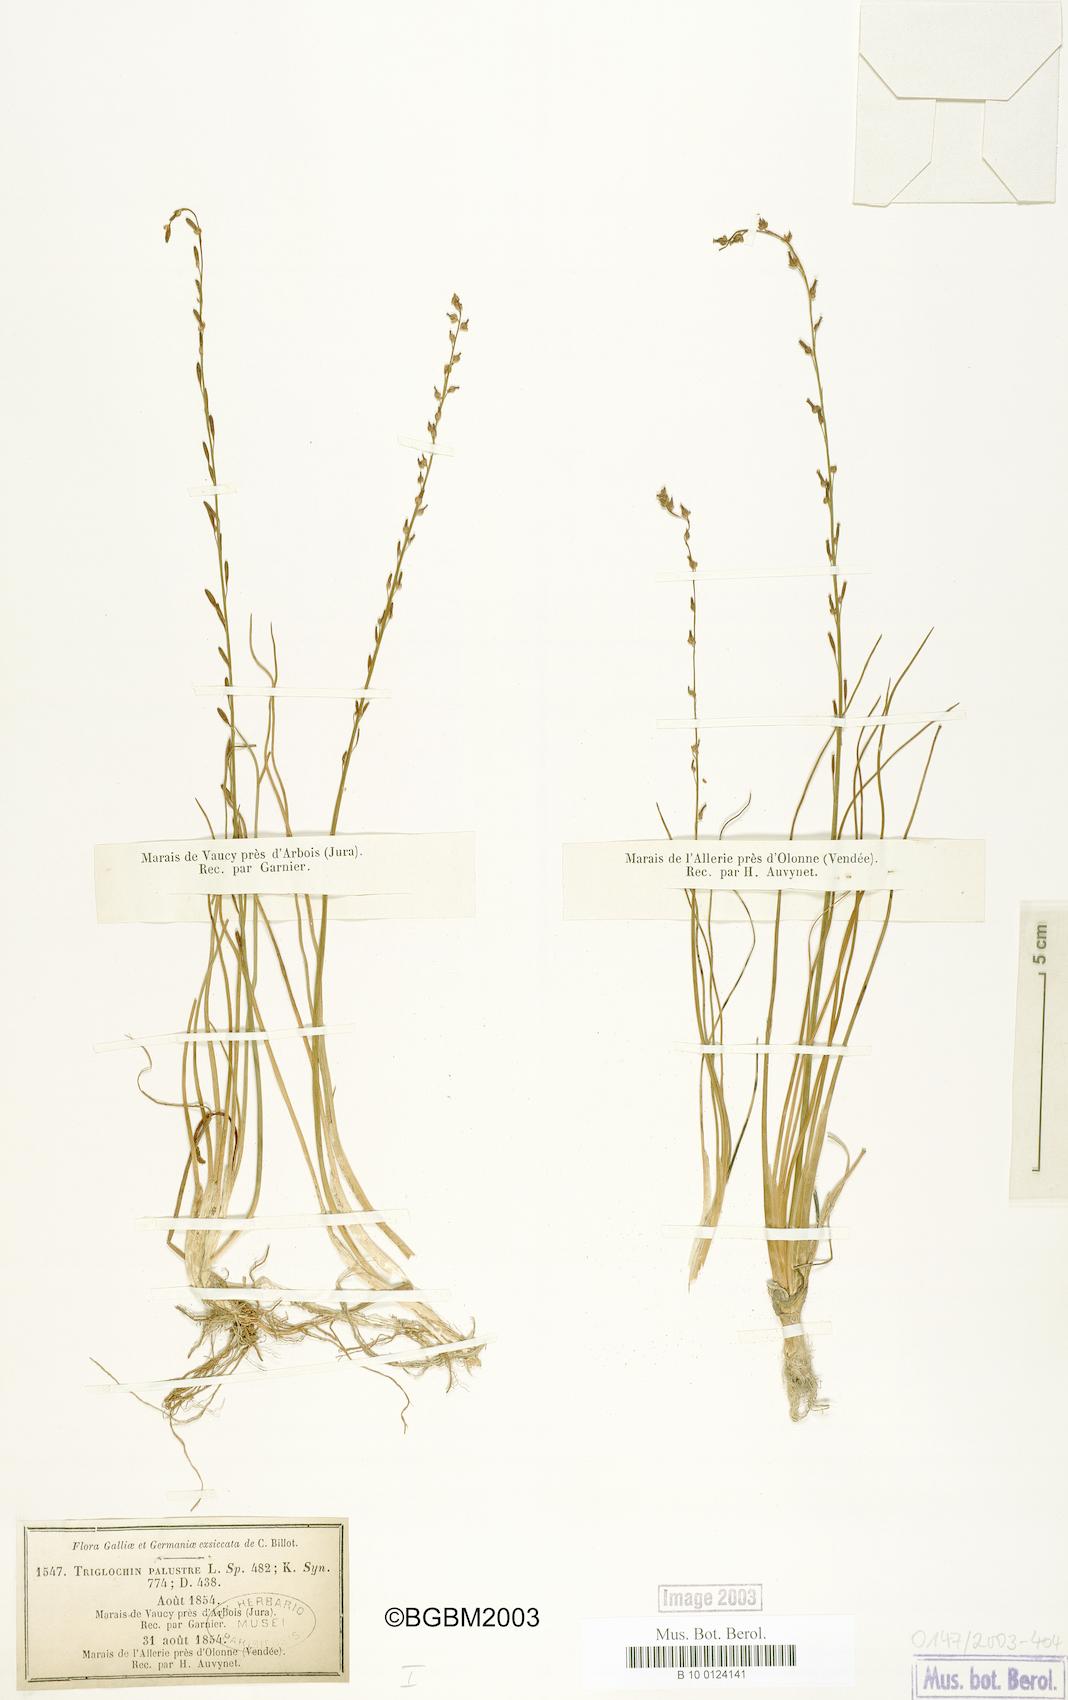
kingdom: Plantae
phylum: Tracheophyta
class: Liliopsida
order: Alismatales
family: Juncaginaceae
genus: Triglochin
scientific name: Triglochin palustris
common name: Marsh arrowgrass
